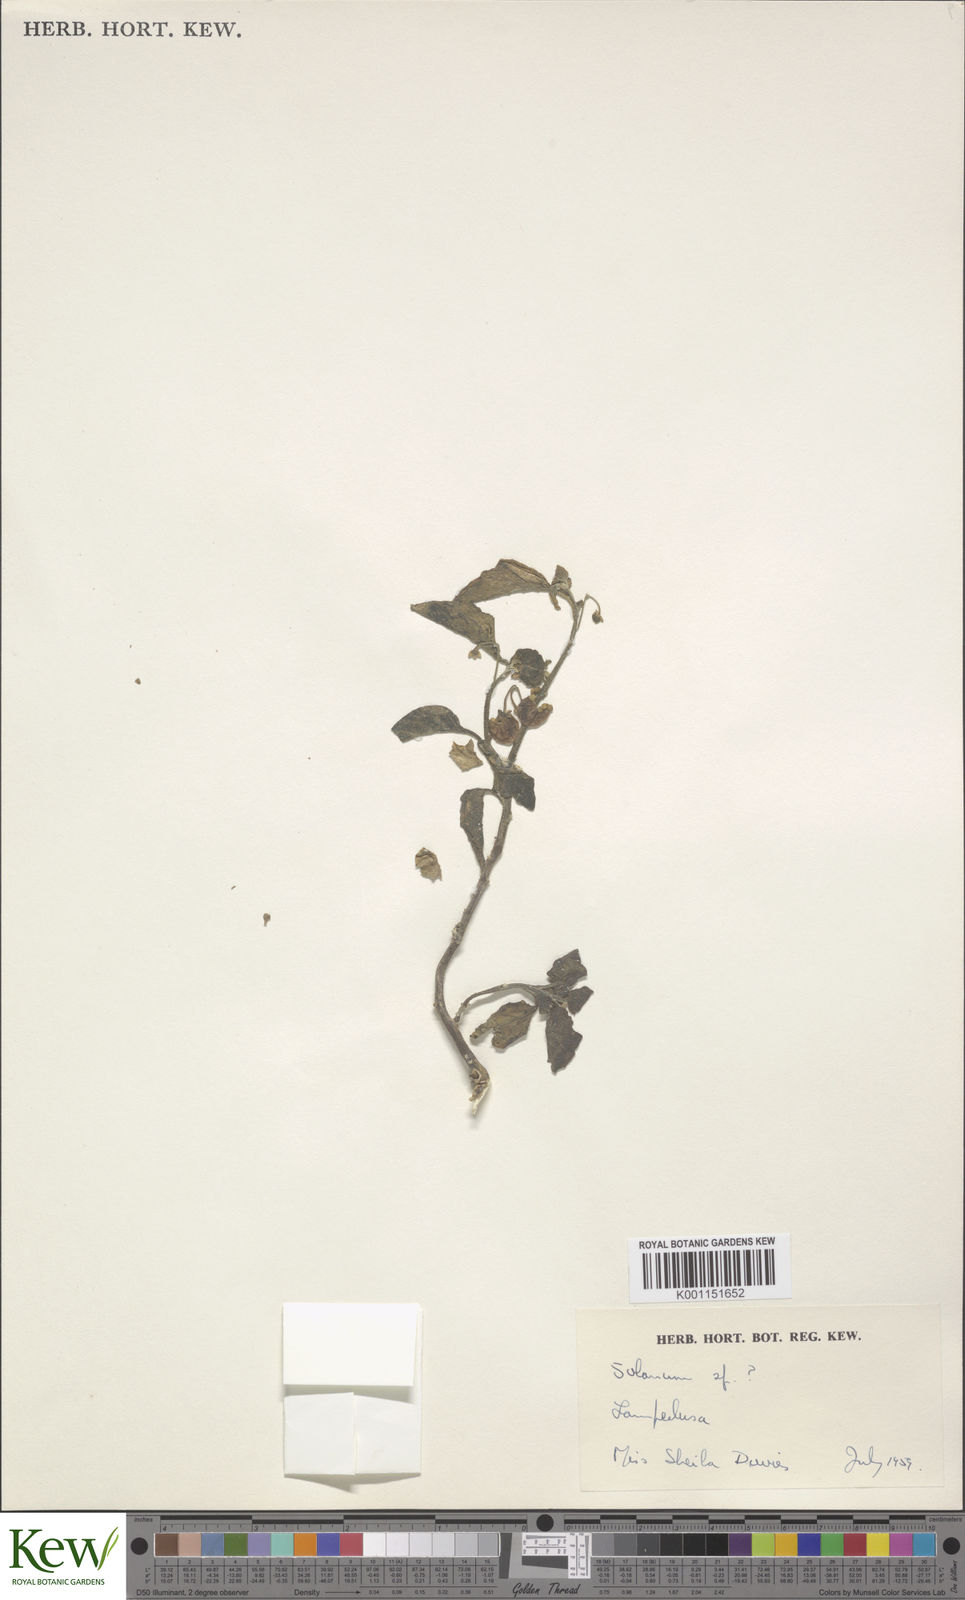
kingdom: Plantae
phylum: Tracheophyta
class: Magnoliopsida
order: Solanales
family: Solanaceae
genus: Solanum
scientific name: Solanum
